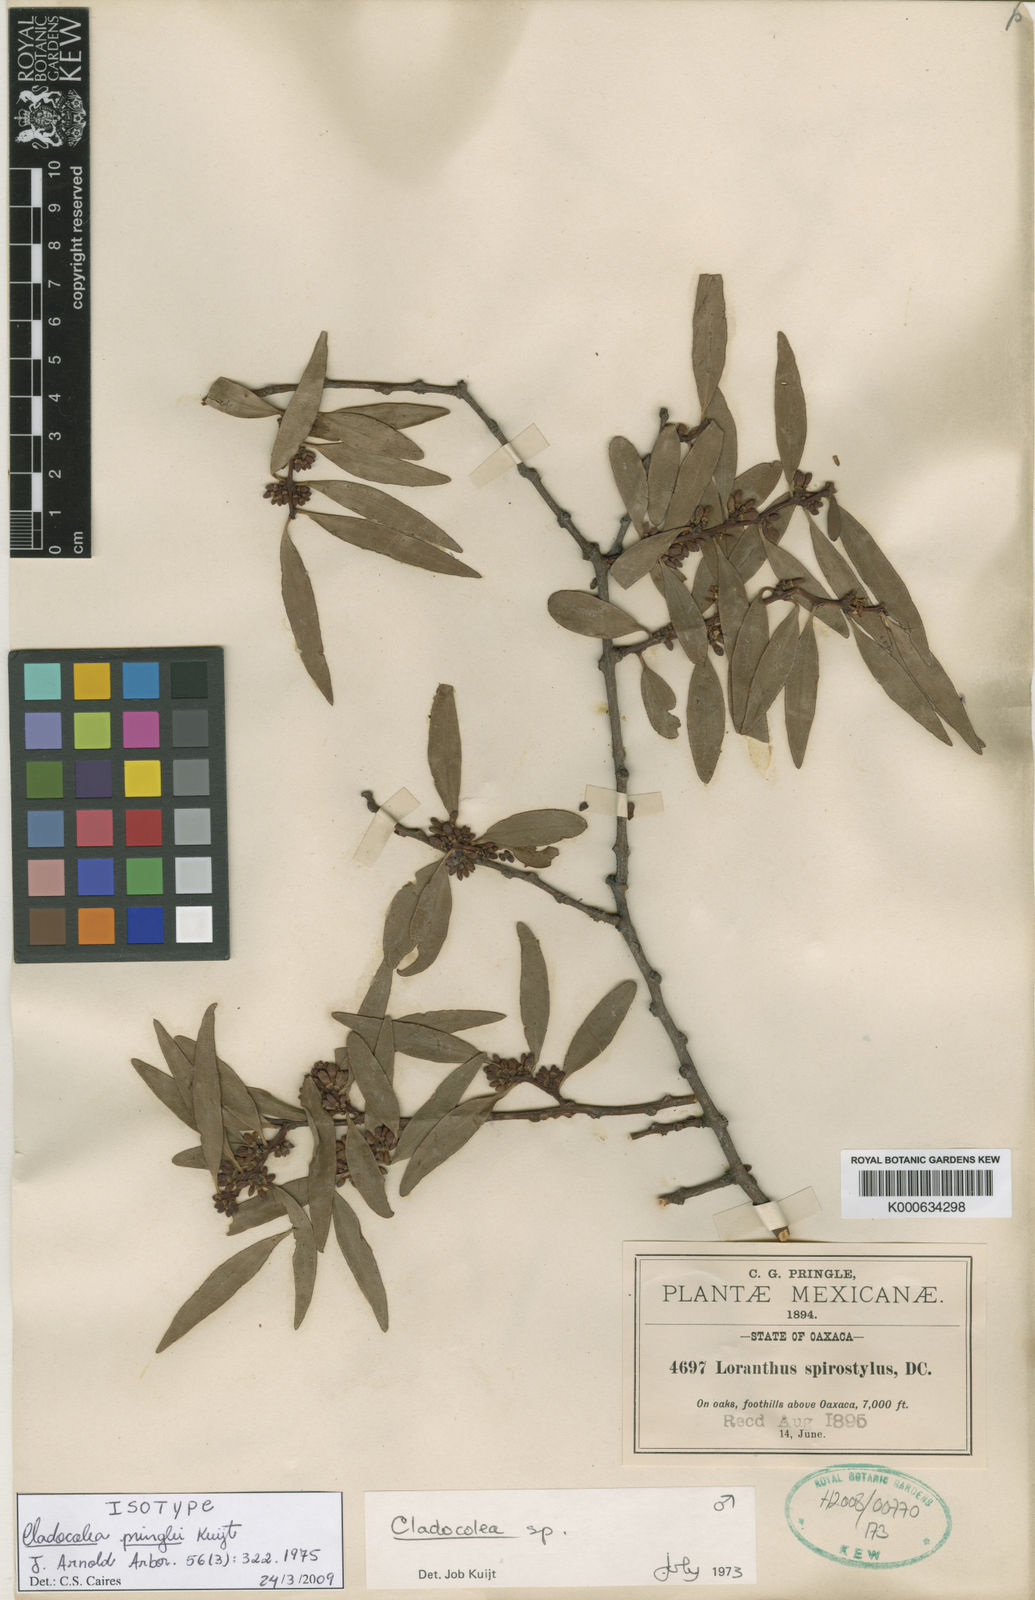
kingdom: Plantae
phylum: Tracheophyta
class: Magnoliopsida
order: Santalales
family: Loranthaceae
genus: Cladocolea
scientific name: Cladocolea pringlei
